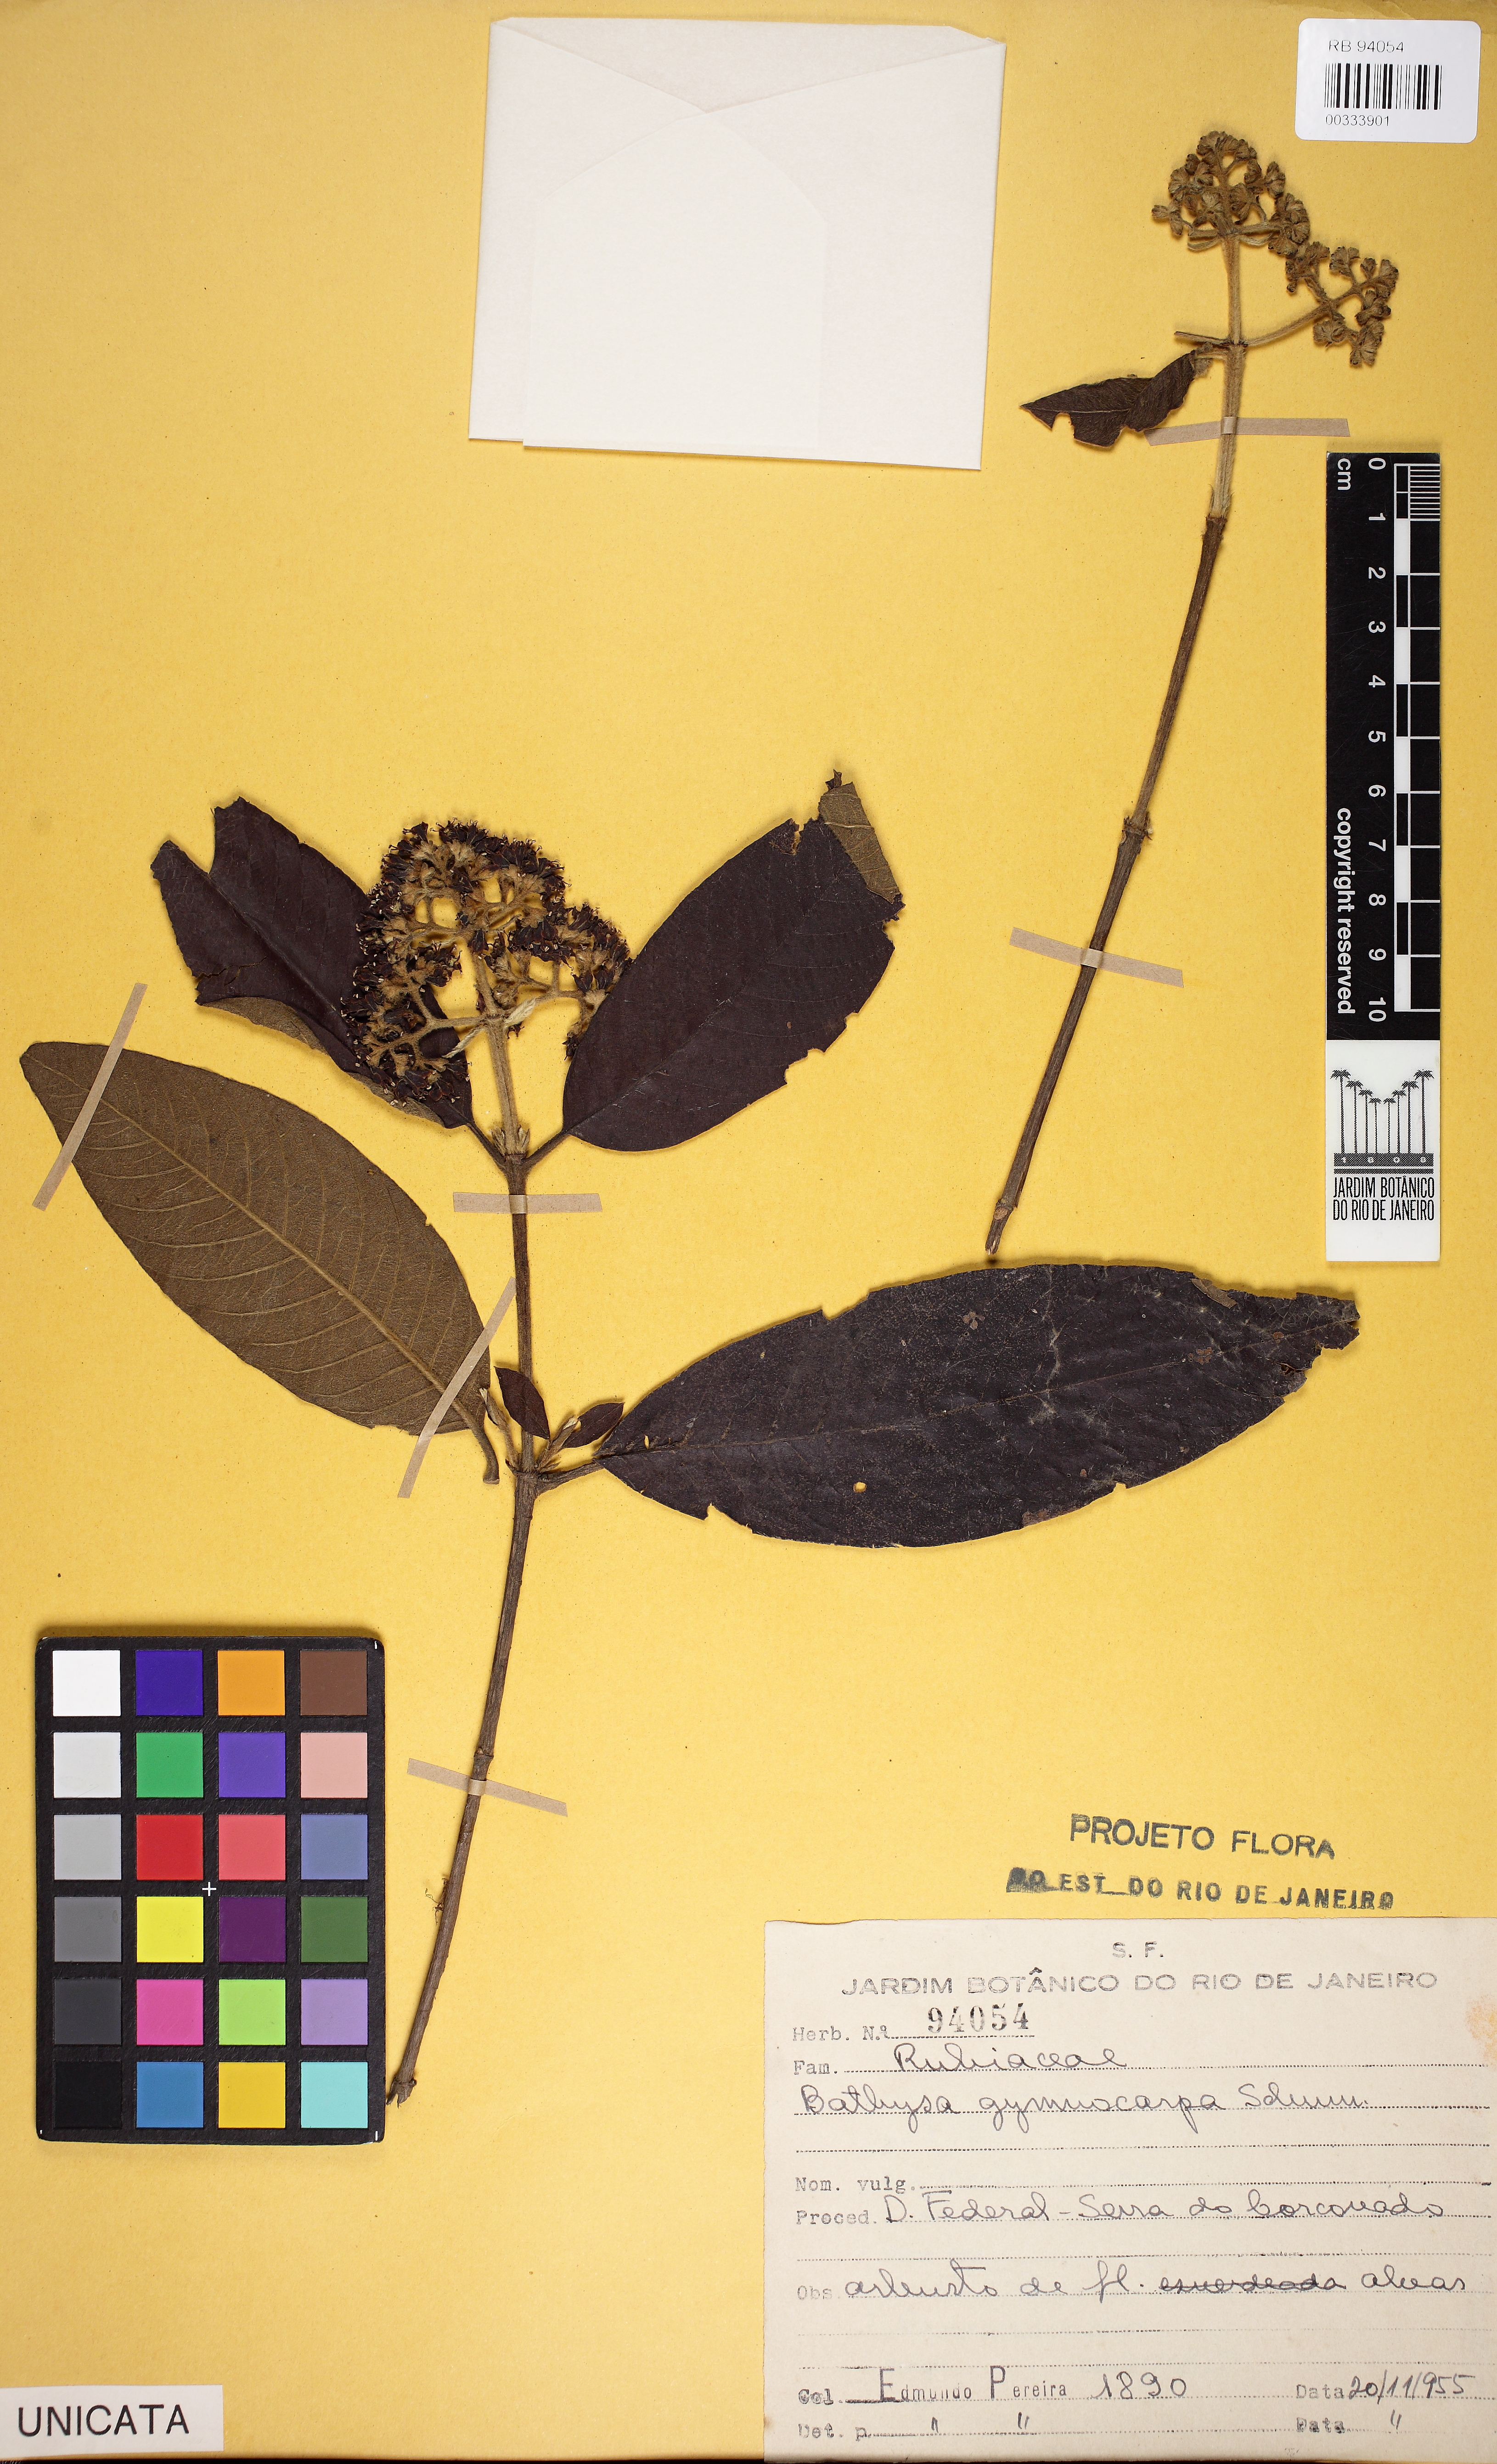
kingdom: Plantae
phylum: Tracheophyta
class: Magnoliopsida
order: Gentianales
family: Rubiaceae
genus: Bathysa
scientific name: Bathysa gymnocarpa
